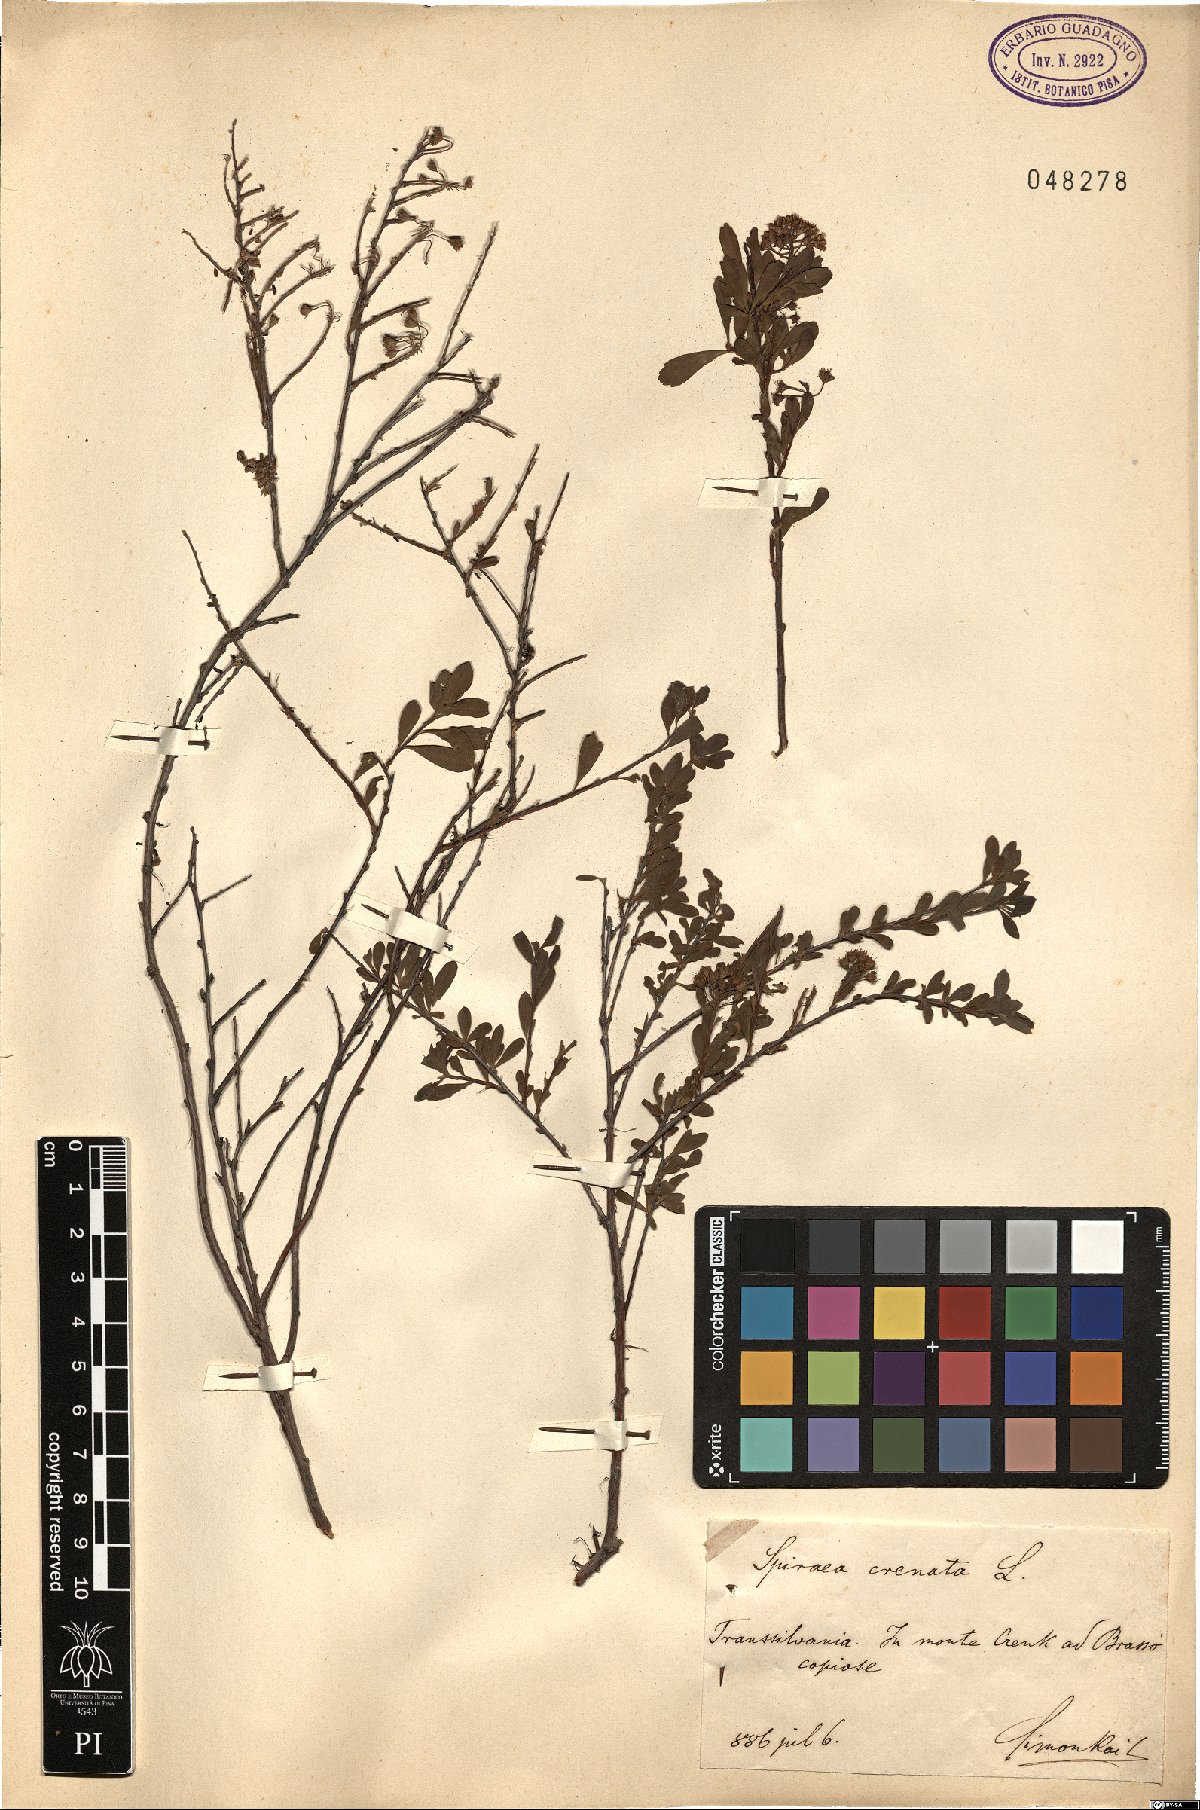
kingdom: Plantae
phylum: Tracheophyta
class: Magnoliopsida
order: Rosales
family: Rosaceae
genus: Spiraea
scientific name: Spiraea crenata
